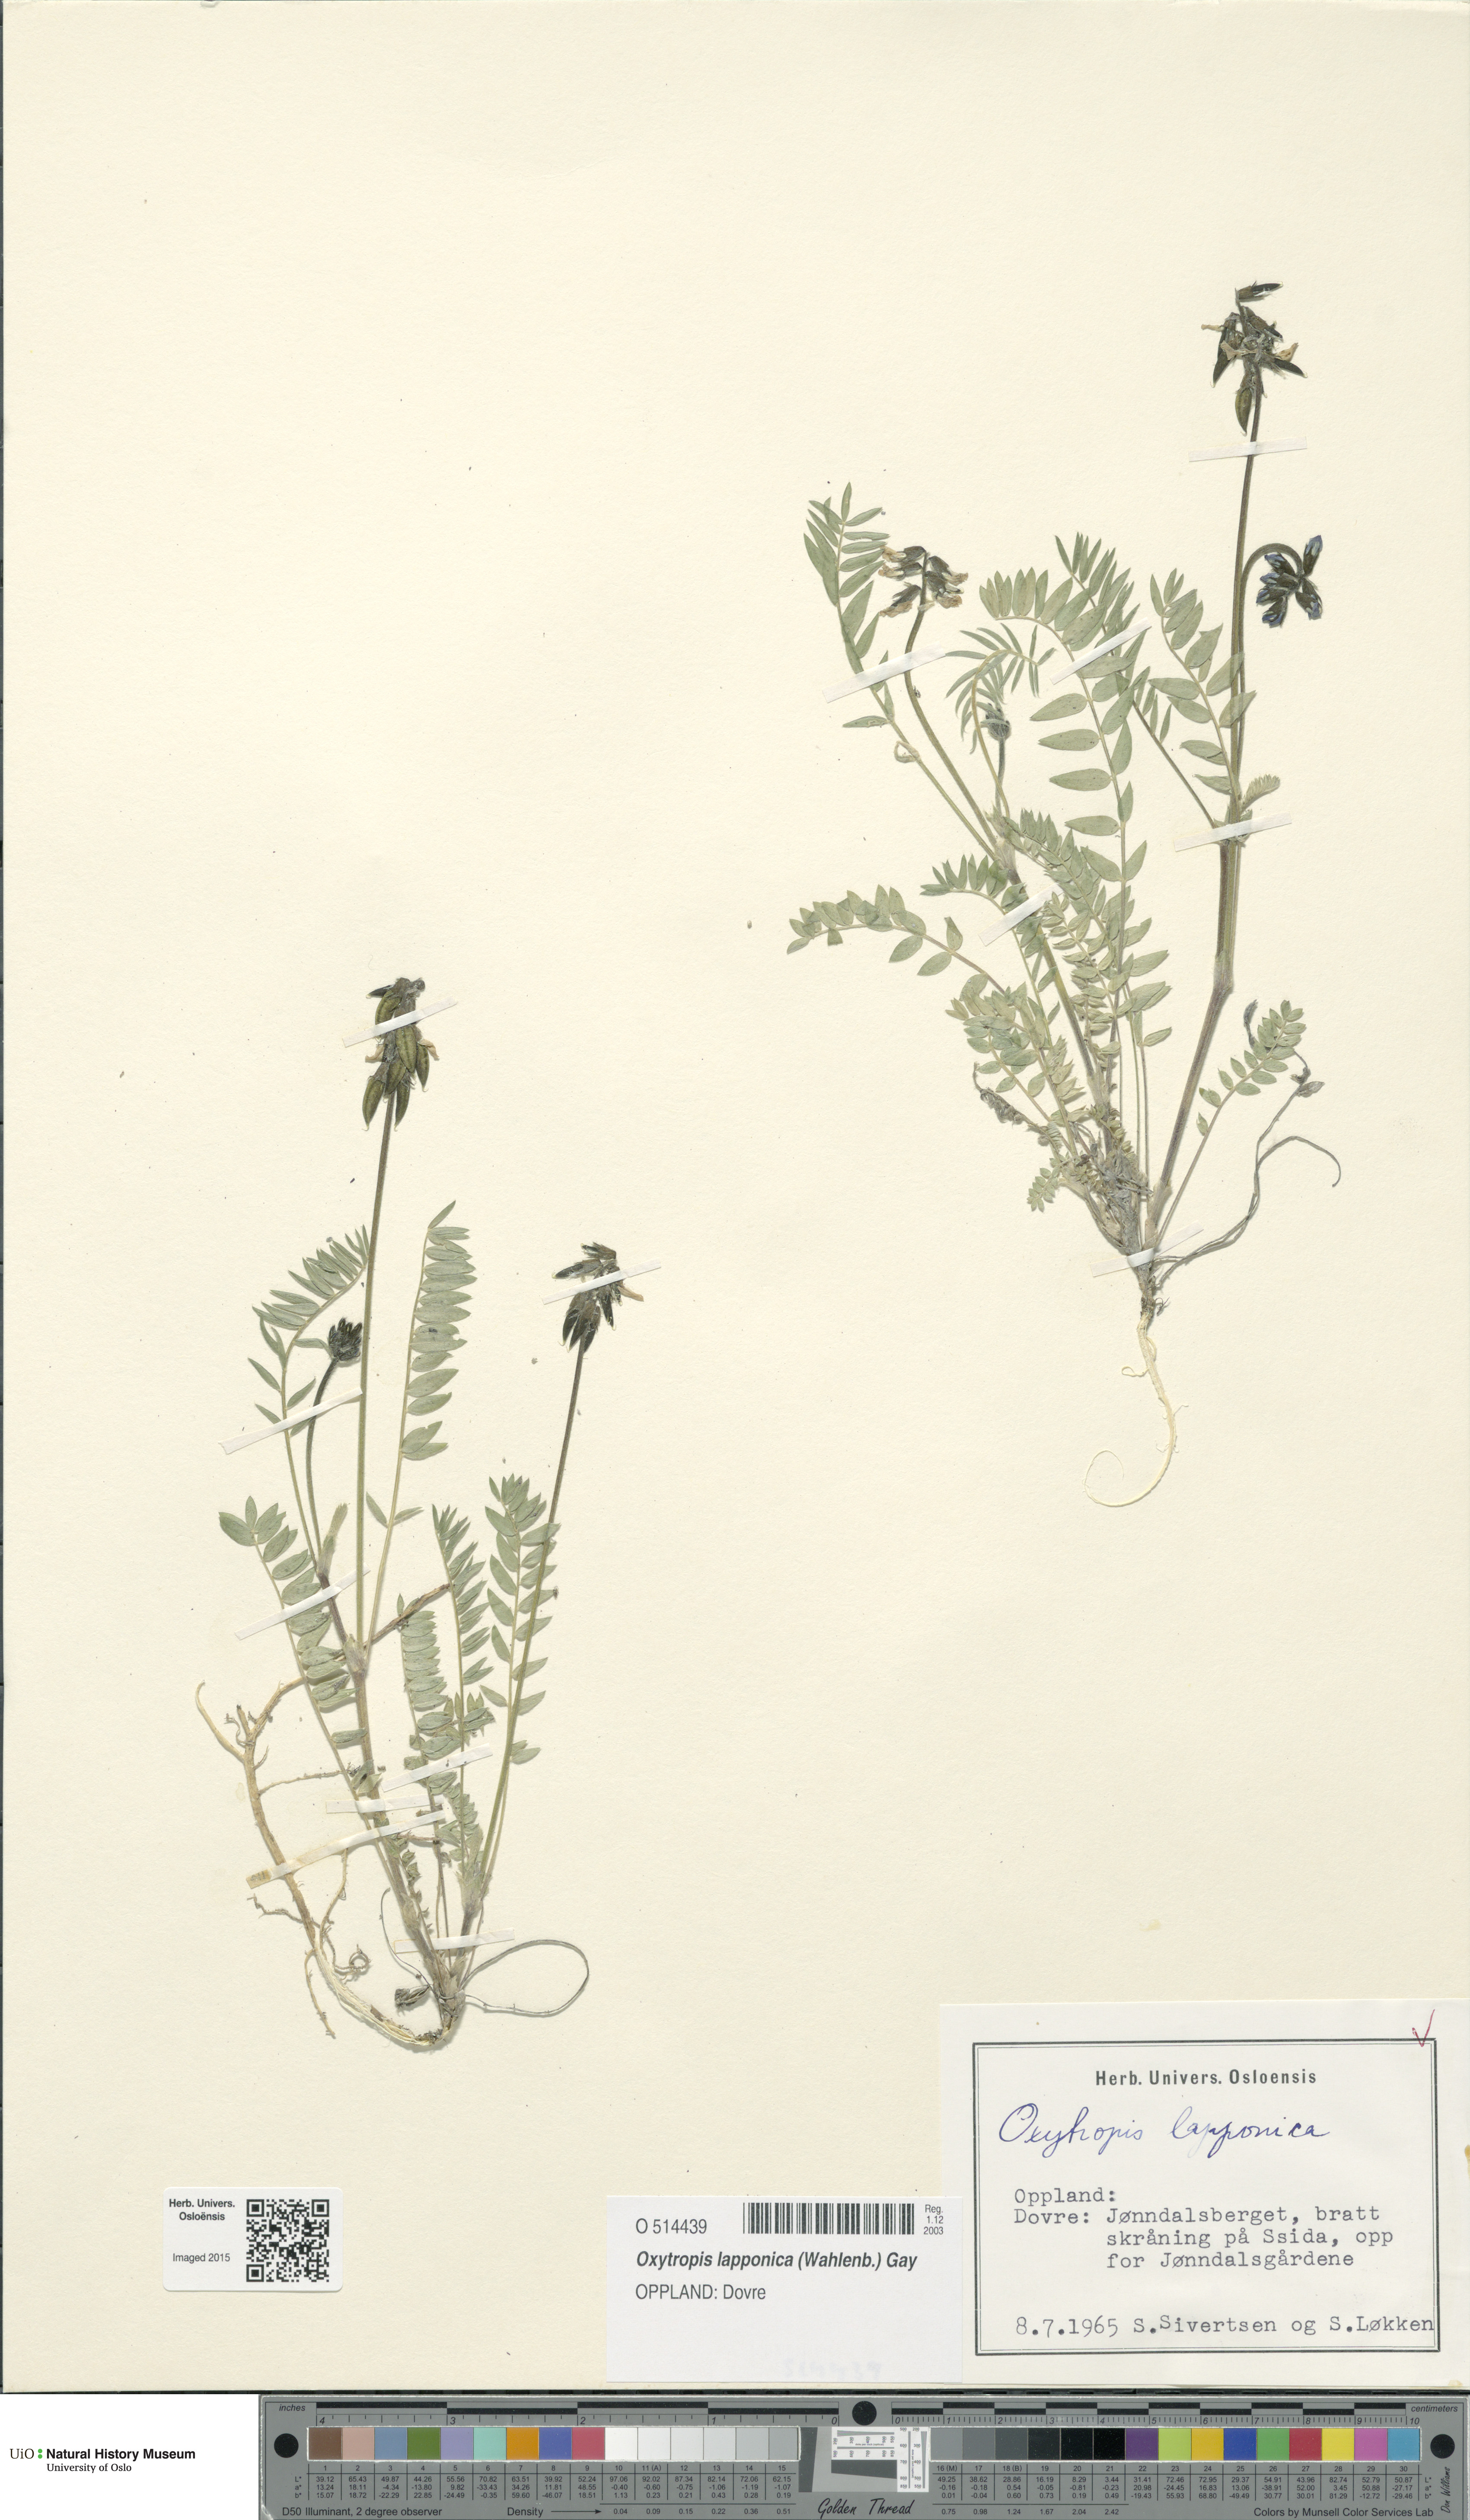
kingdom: Plantae
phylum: Tracheophyta
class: Magnoliopsida
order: Fabales
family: Fabaceae
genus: Oxytropis
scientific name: Oxytropis lapponica
